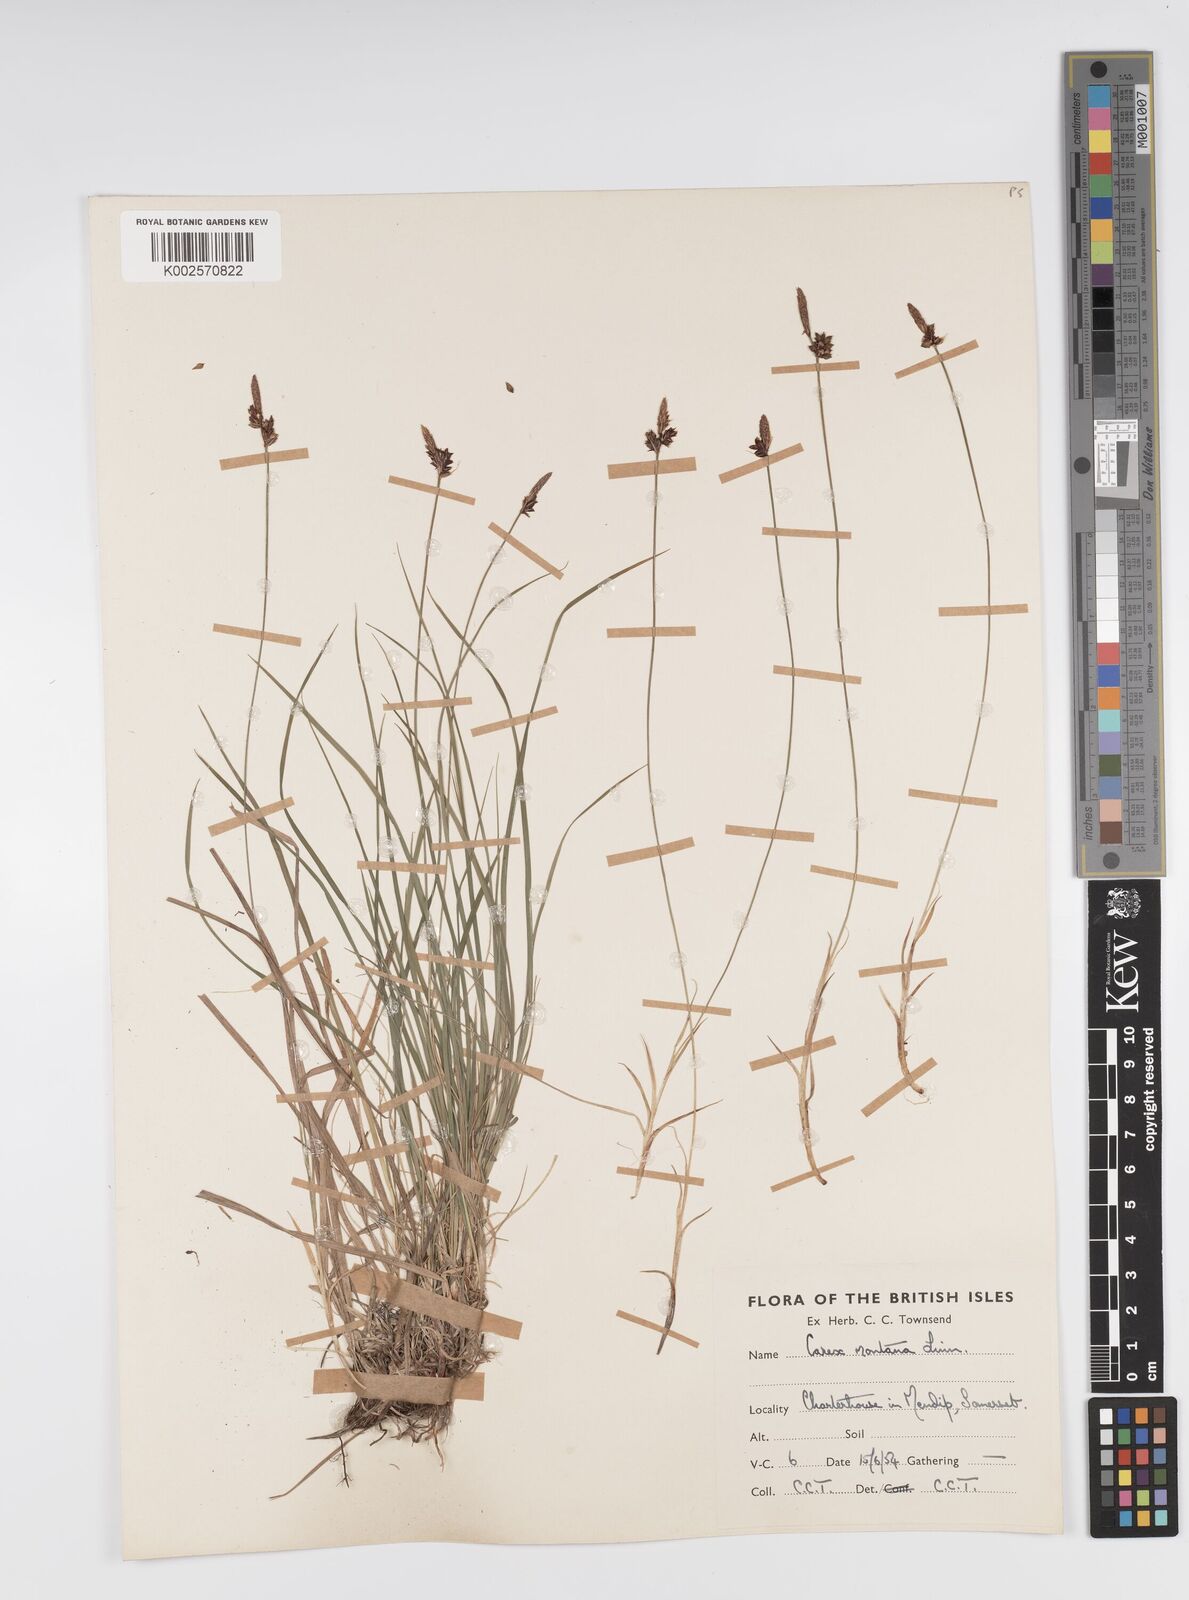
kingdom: Plantae
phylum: Tracheophyta
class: Liliopsida
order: Poales
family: Cyperaceae
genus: Carex
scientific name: Carex montana
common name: Soft-leaved sedge
